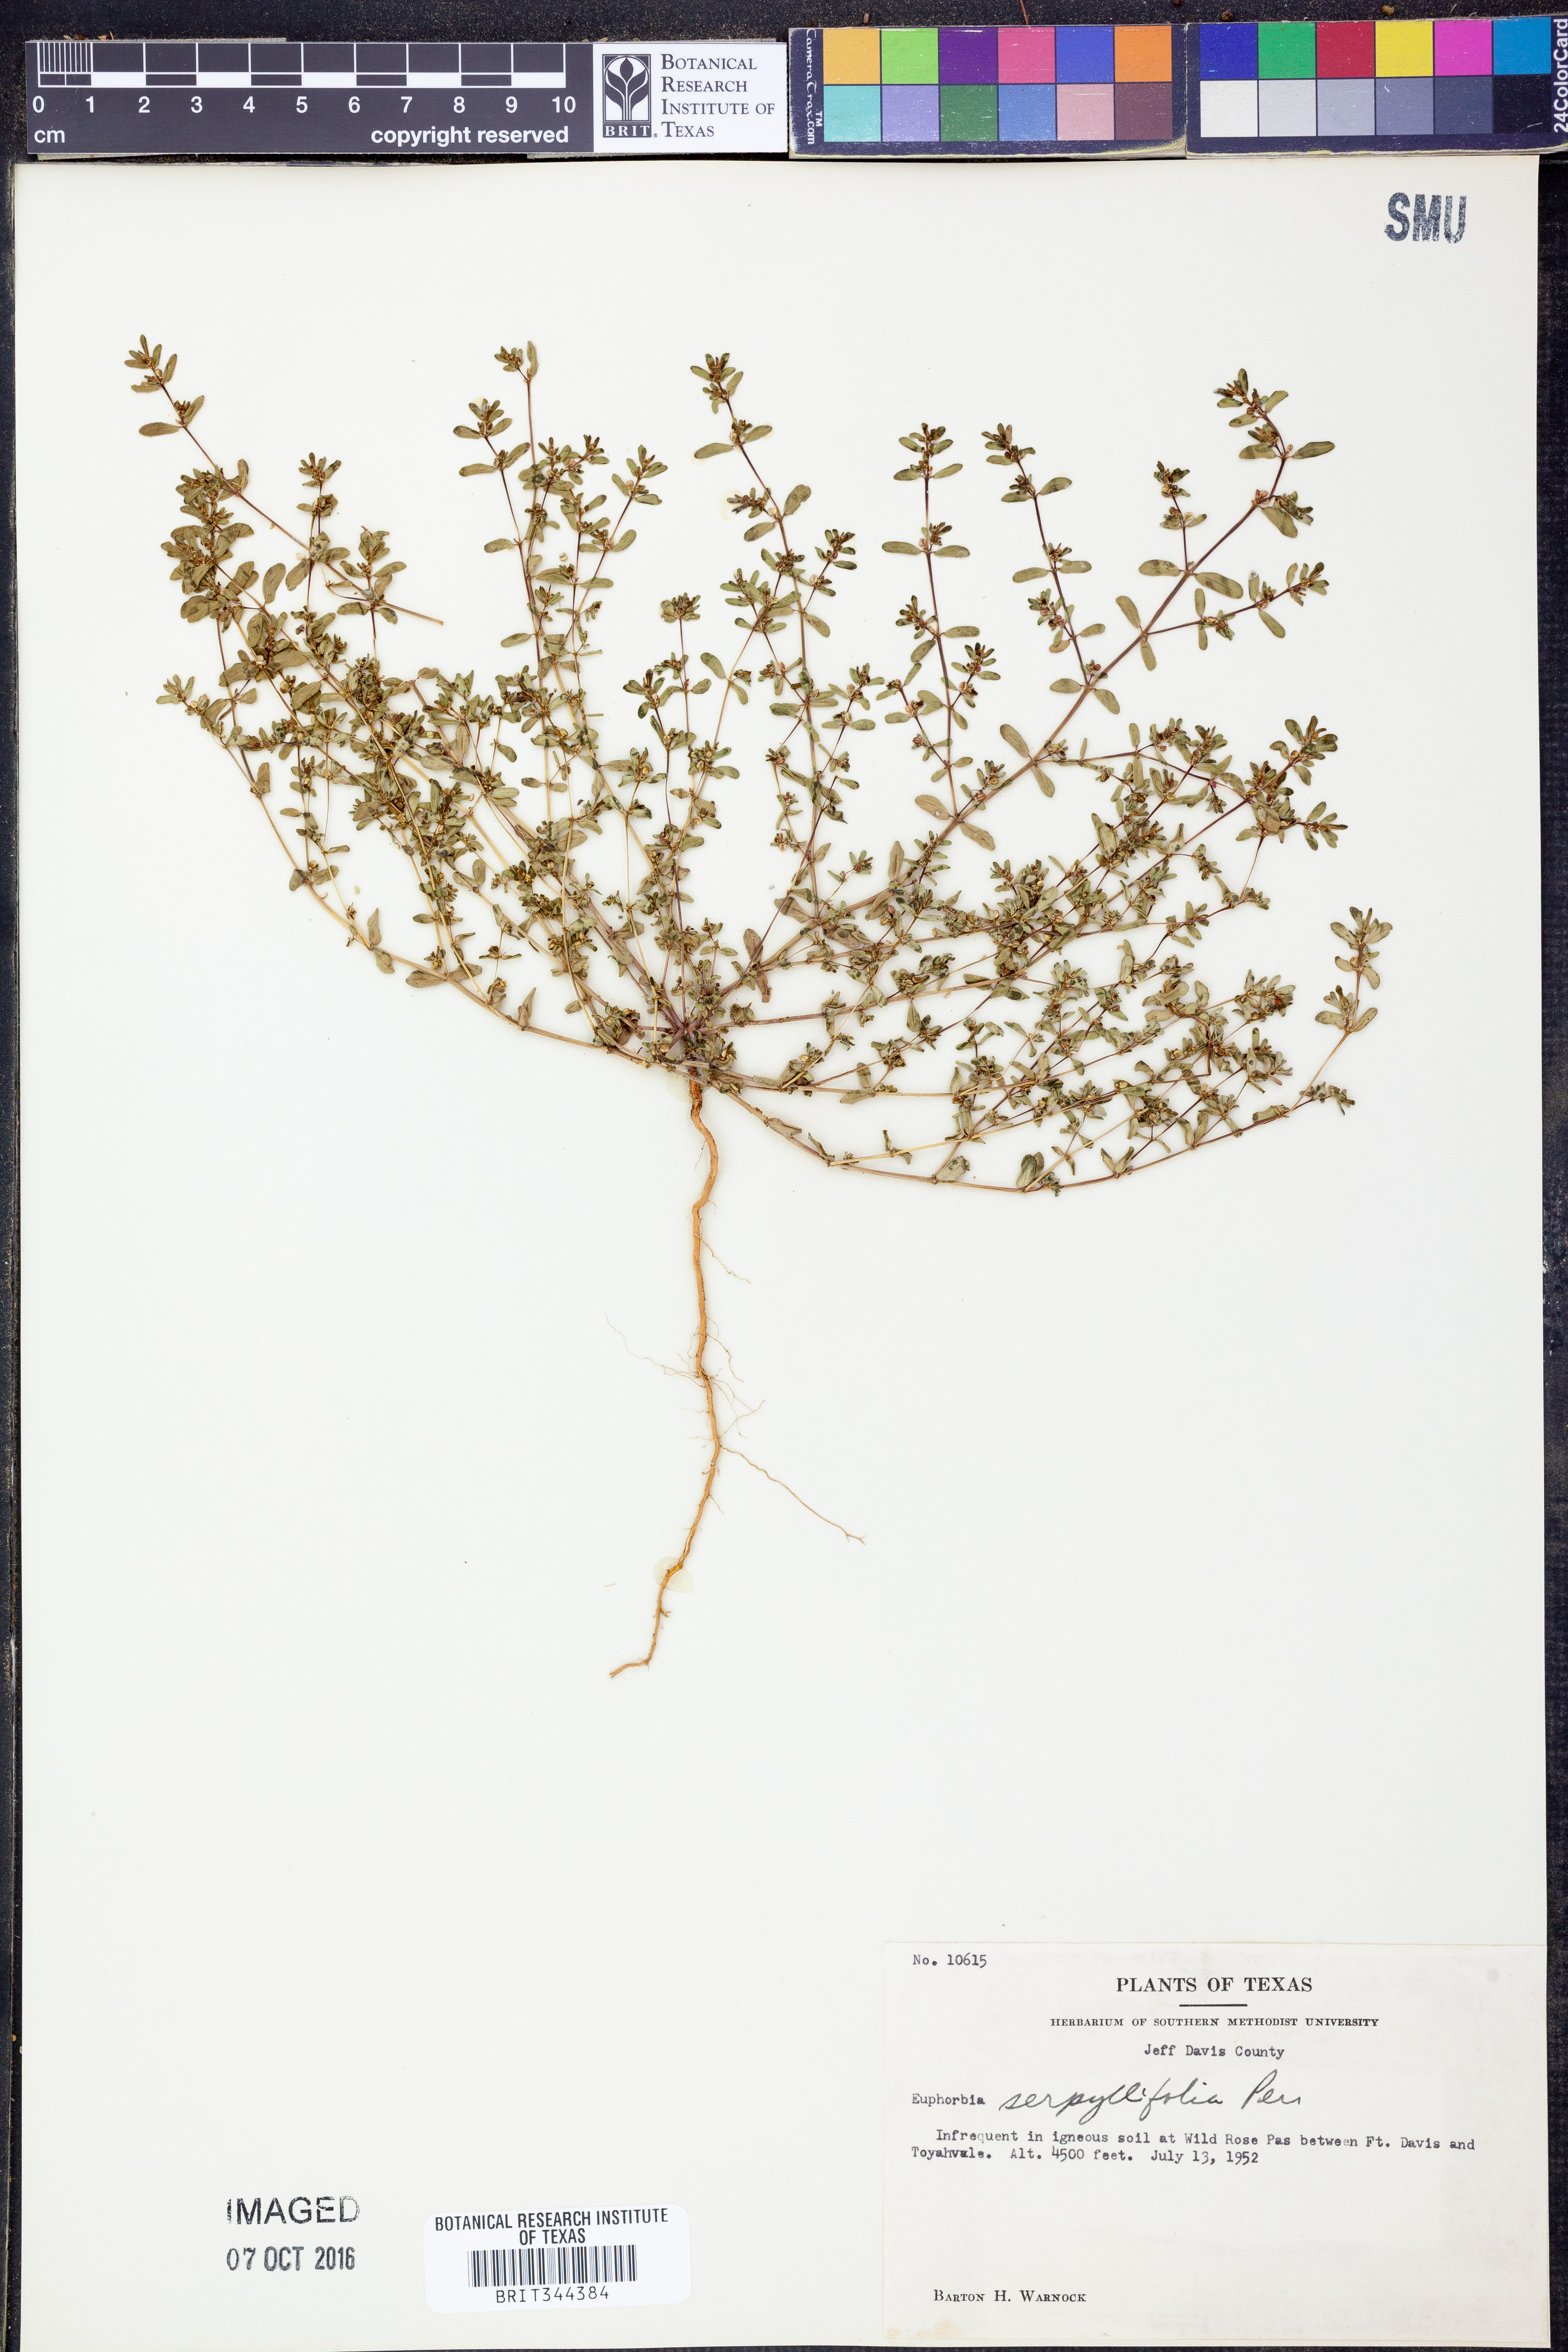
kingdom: Plantae
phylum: Tracheophyta
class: Magnoliopsida
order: Malpighiales
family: Euphorbiaceae
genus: Euphorbia
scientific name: Euphorbia serpillifolia
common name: Thyme-leaf spurge
